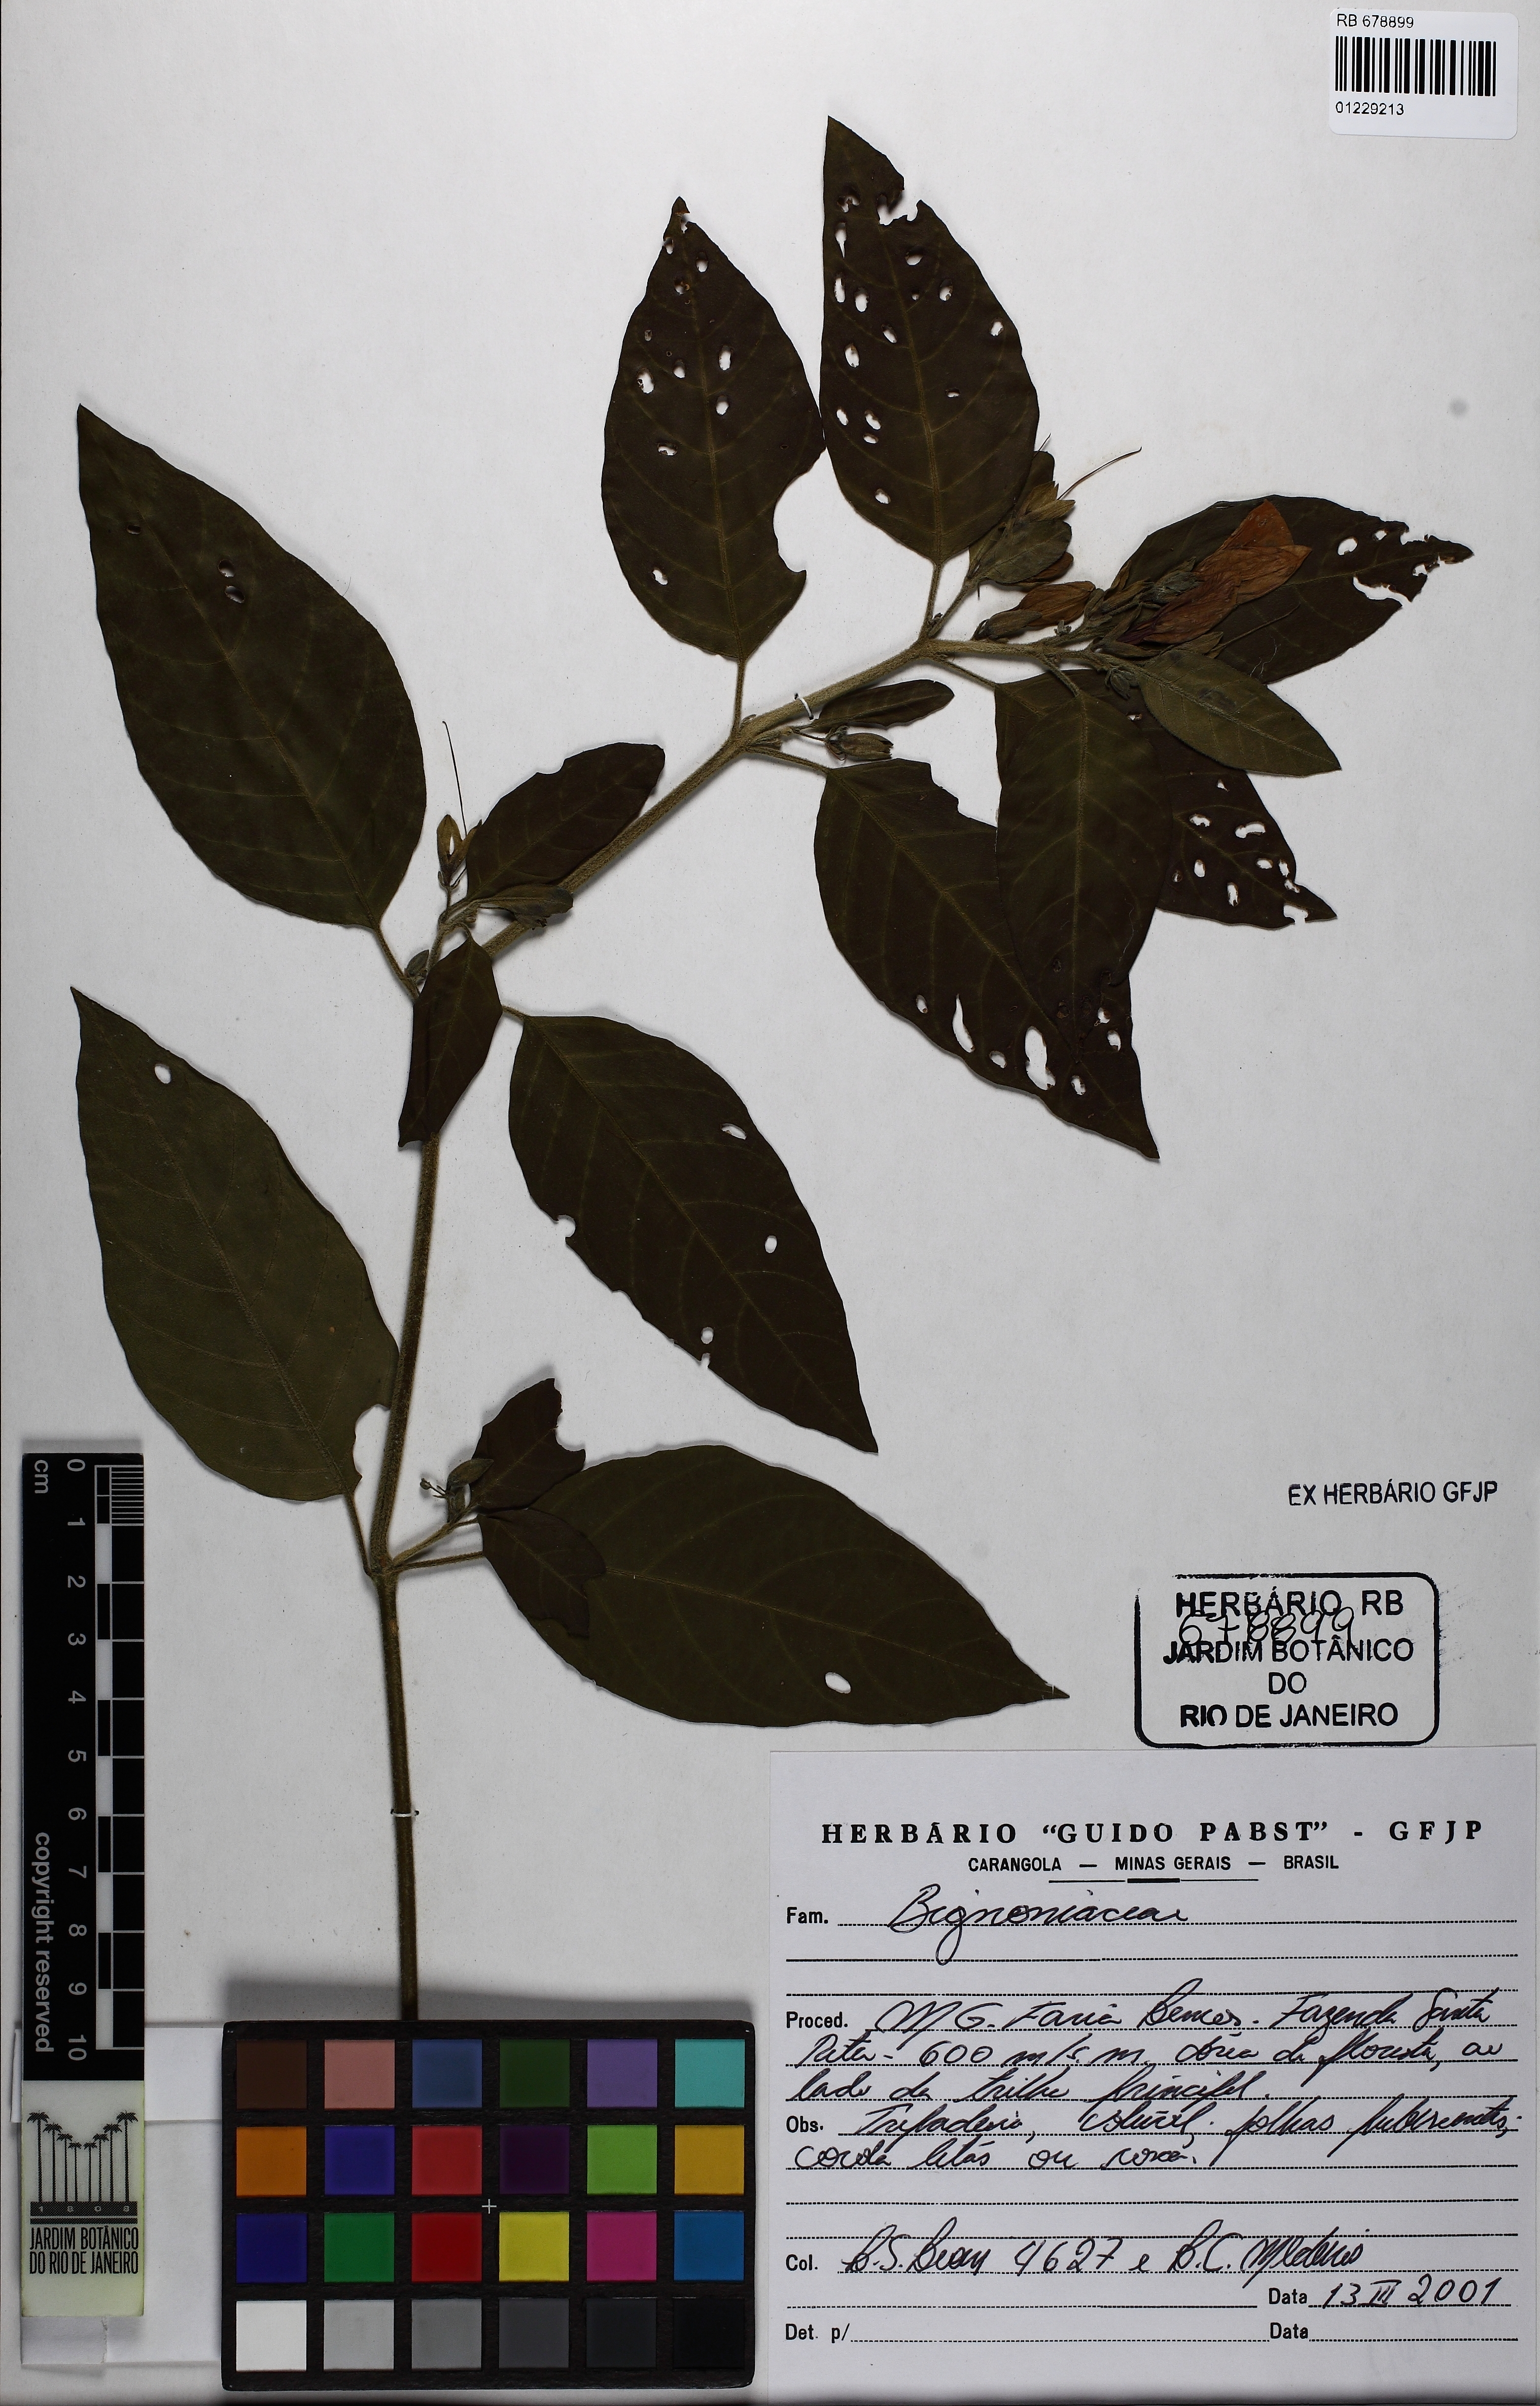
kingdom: Plantae
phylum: Tracheophyta
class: Magnoliopsida
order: Lamiales
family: Acanthaceae
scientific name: Acanthaceae
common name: Acanthaceae
